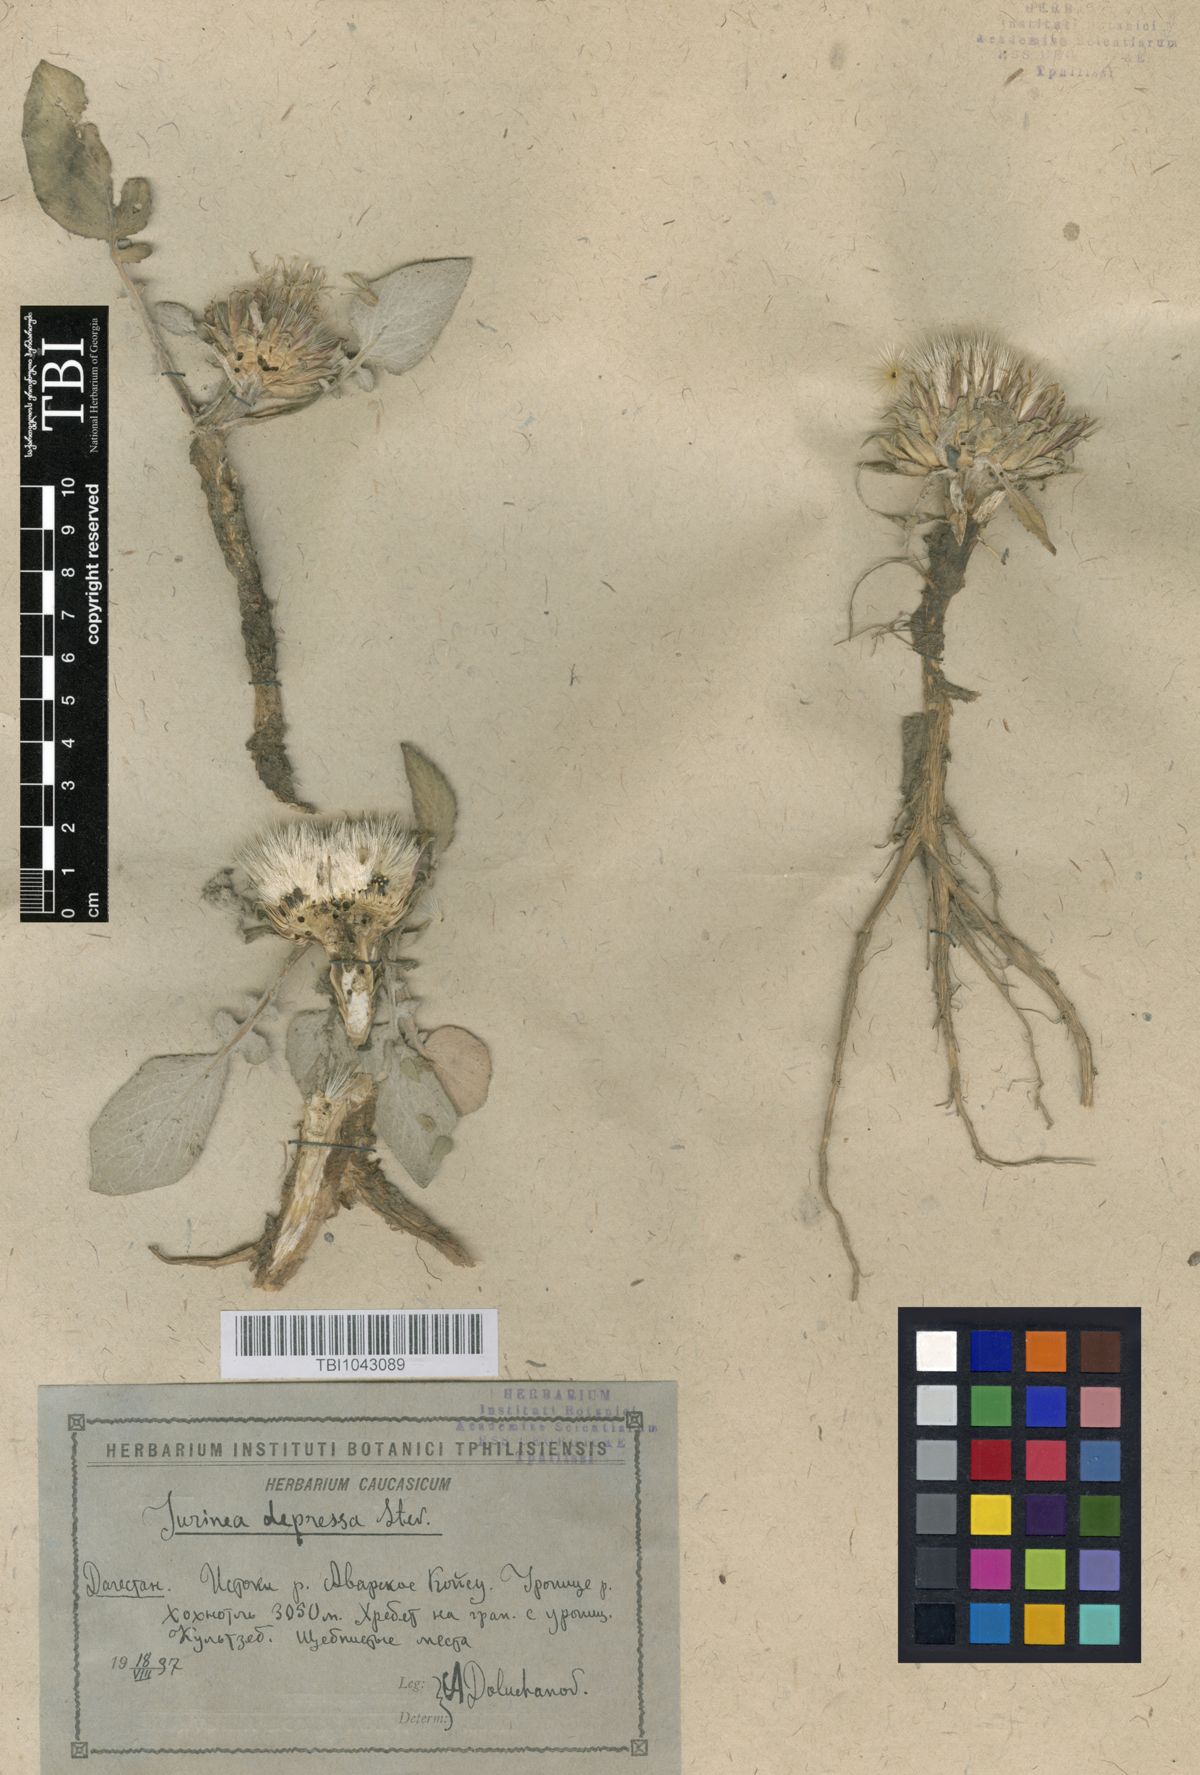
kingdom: Plantae
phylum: Tracheophyta
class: Magnoliopsida
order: Asterales
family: Asteraceae
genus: Jurinea
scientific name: Jurinea moschus
